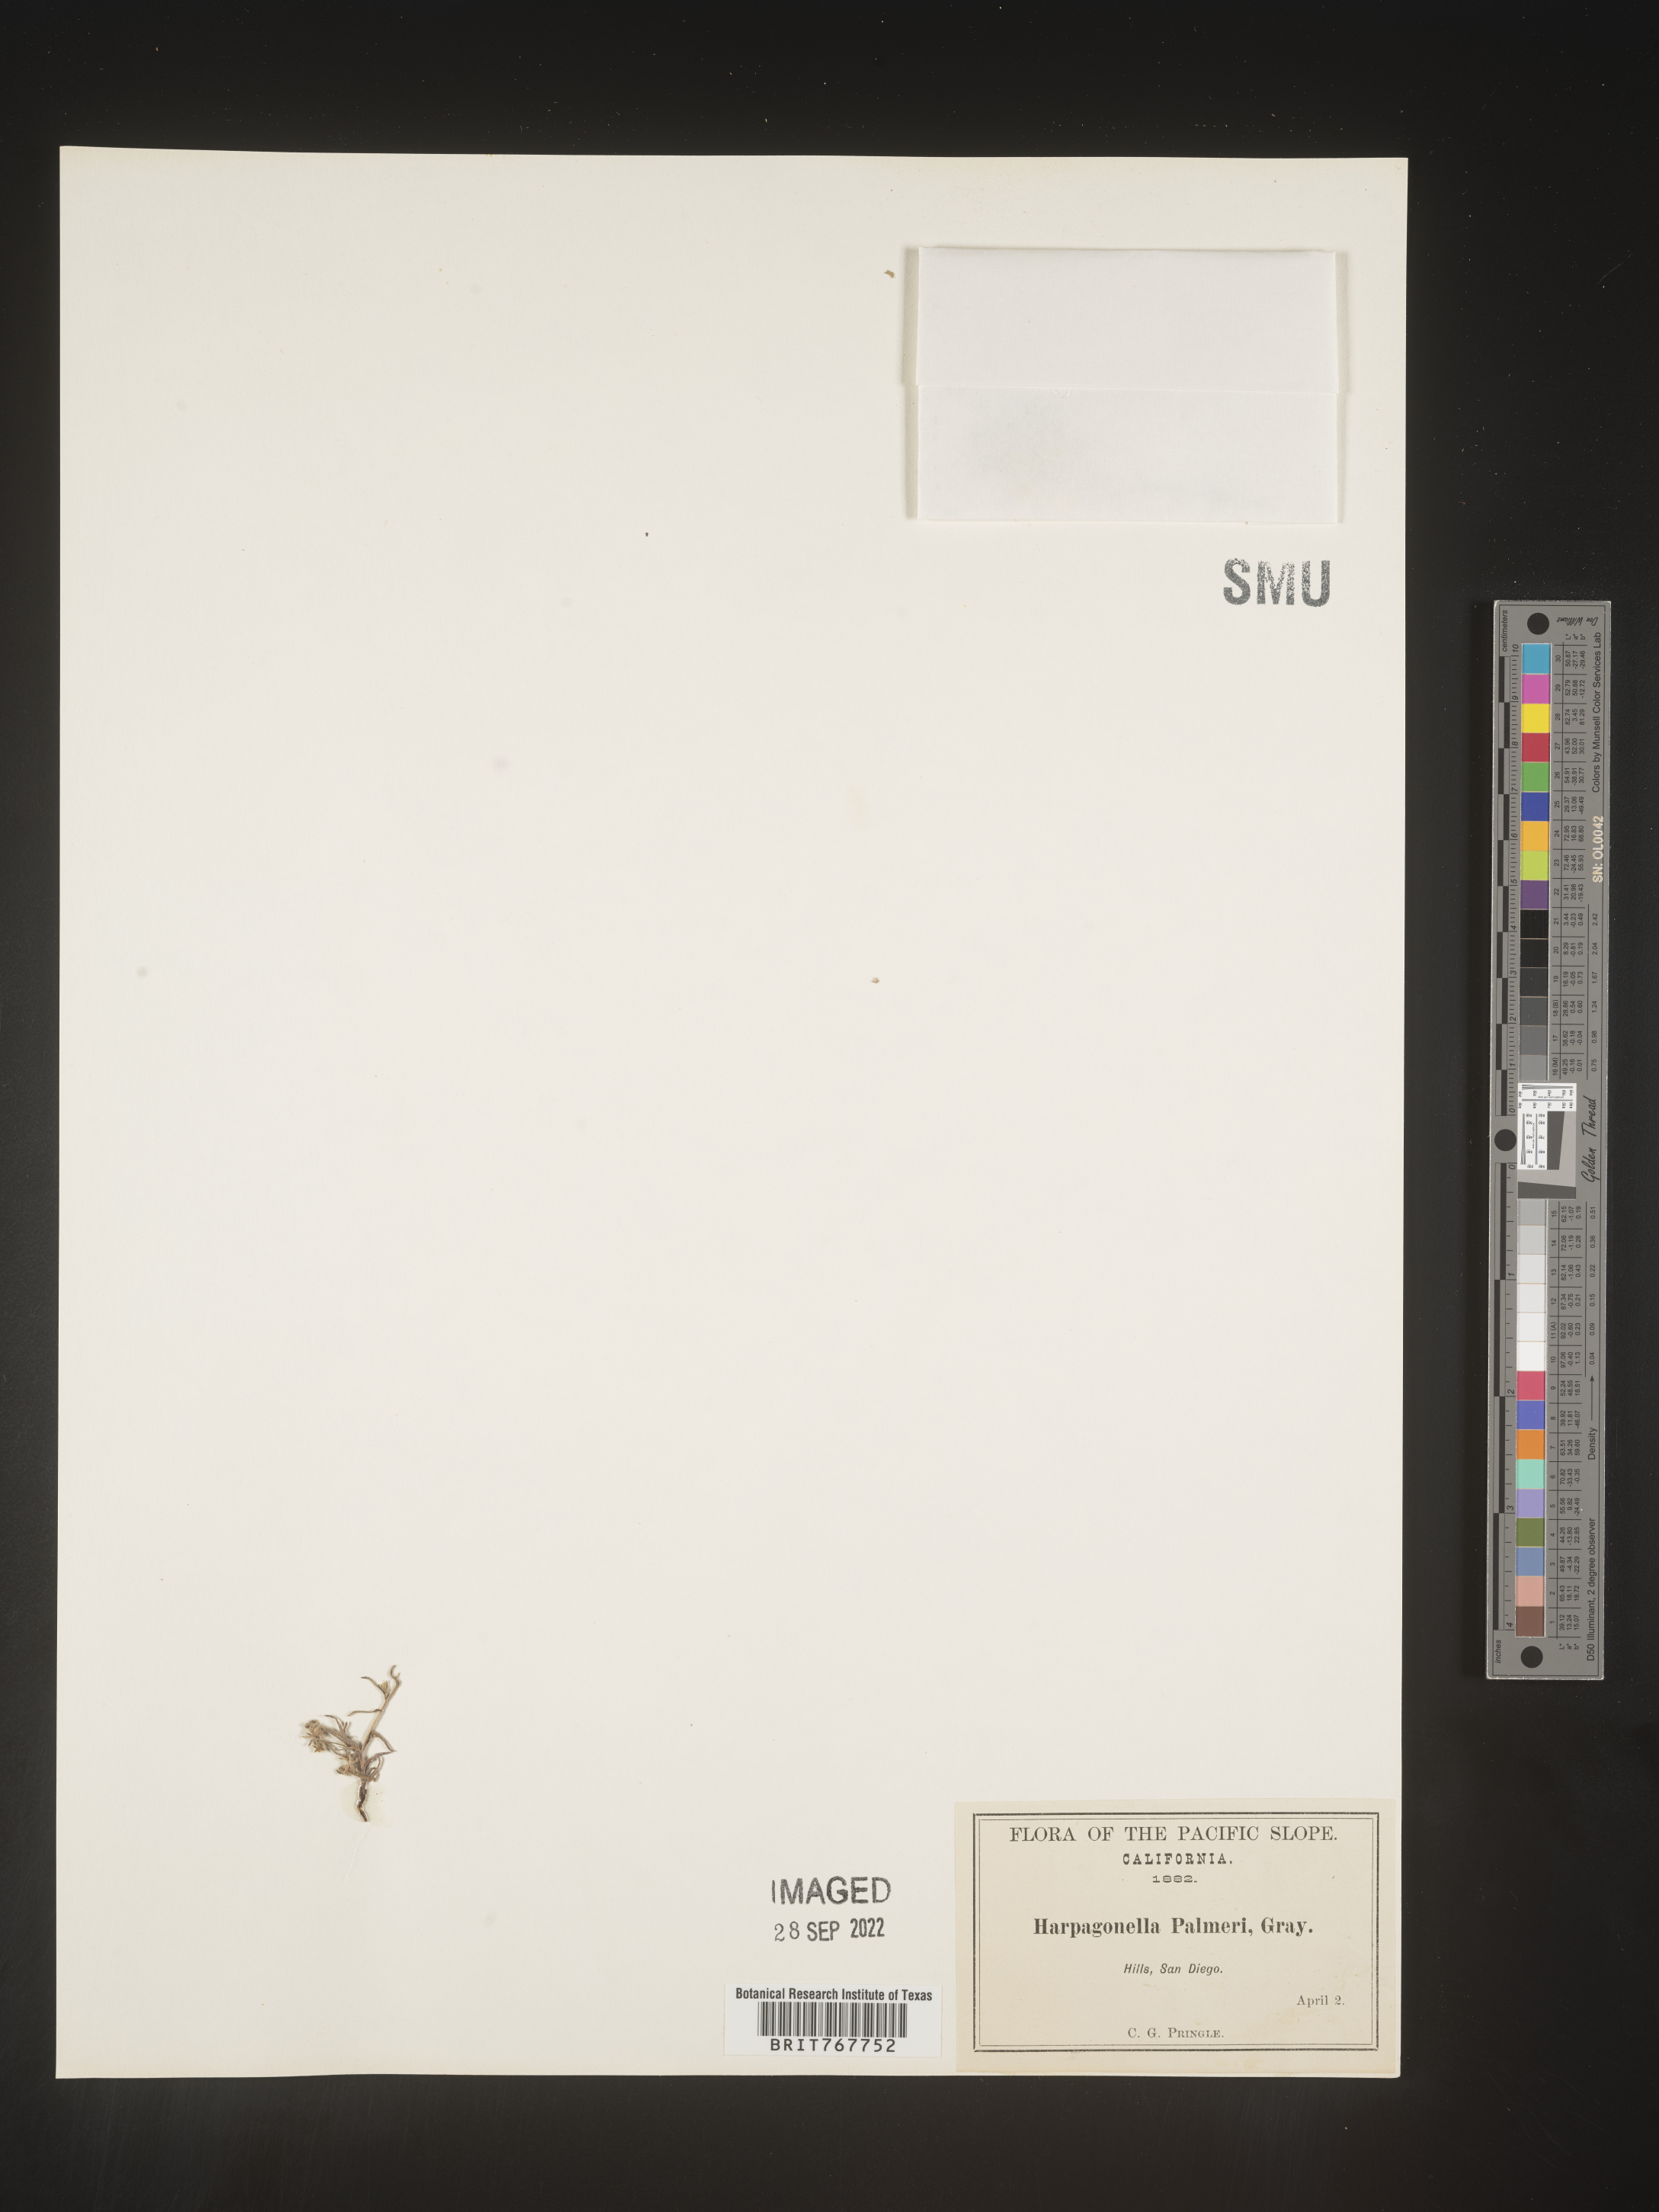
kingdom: Plantae
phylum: Tracheophyta
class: Magnoliopsida
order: Boraginales
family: Boraginaceae
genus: Harpagonella
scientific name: Harpagonella
